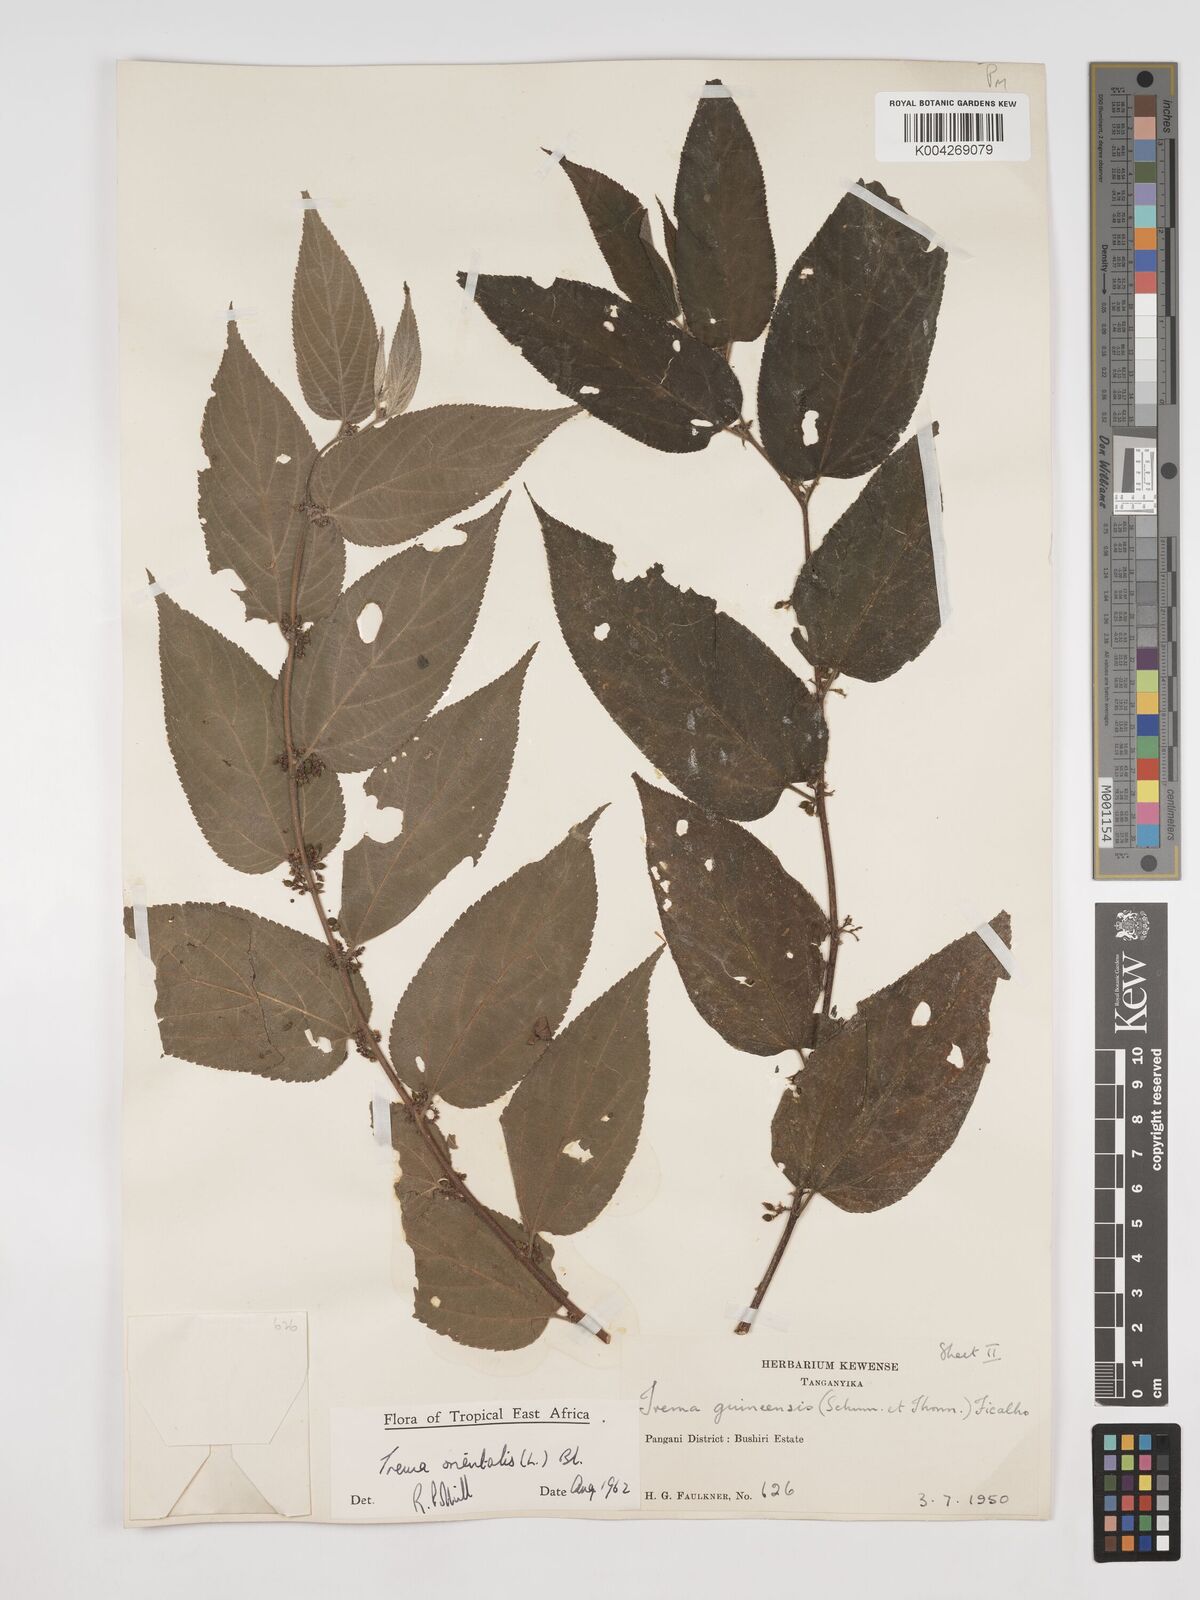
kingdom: Plantae
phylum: Tracheophyta
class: Magnoliopsida
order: Rosales
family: Cannabaceae
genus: Trema
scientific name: Trema orientale
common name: Indian charcoal tree
